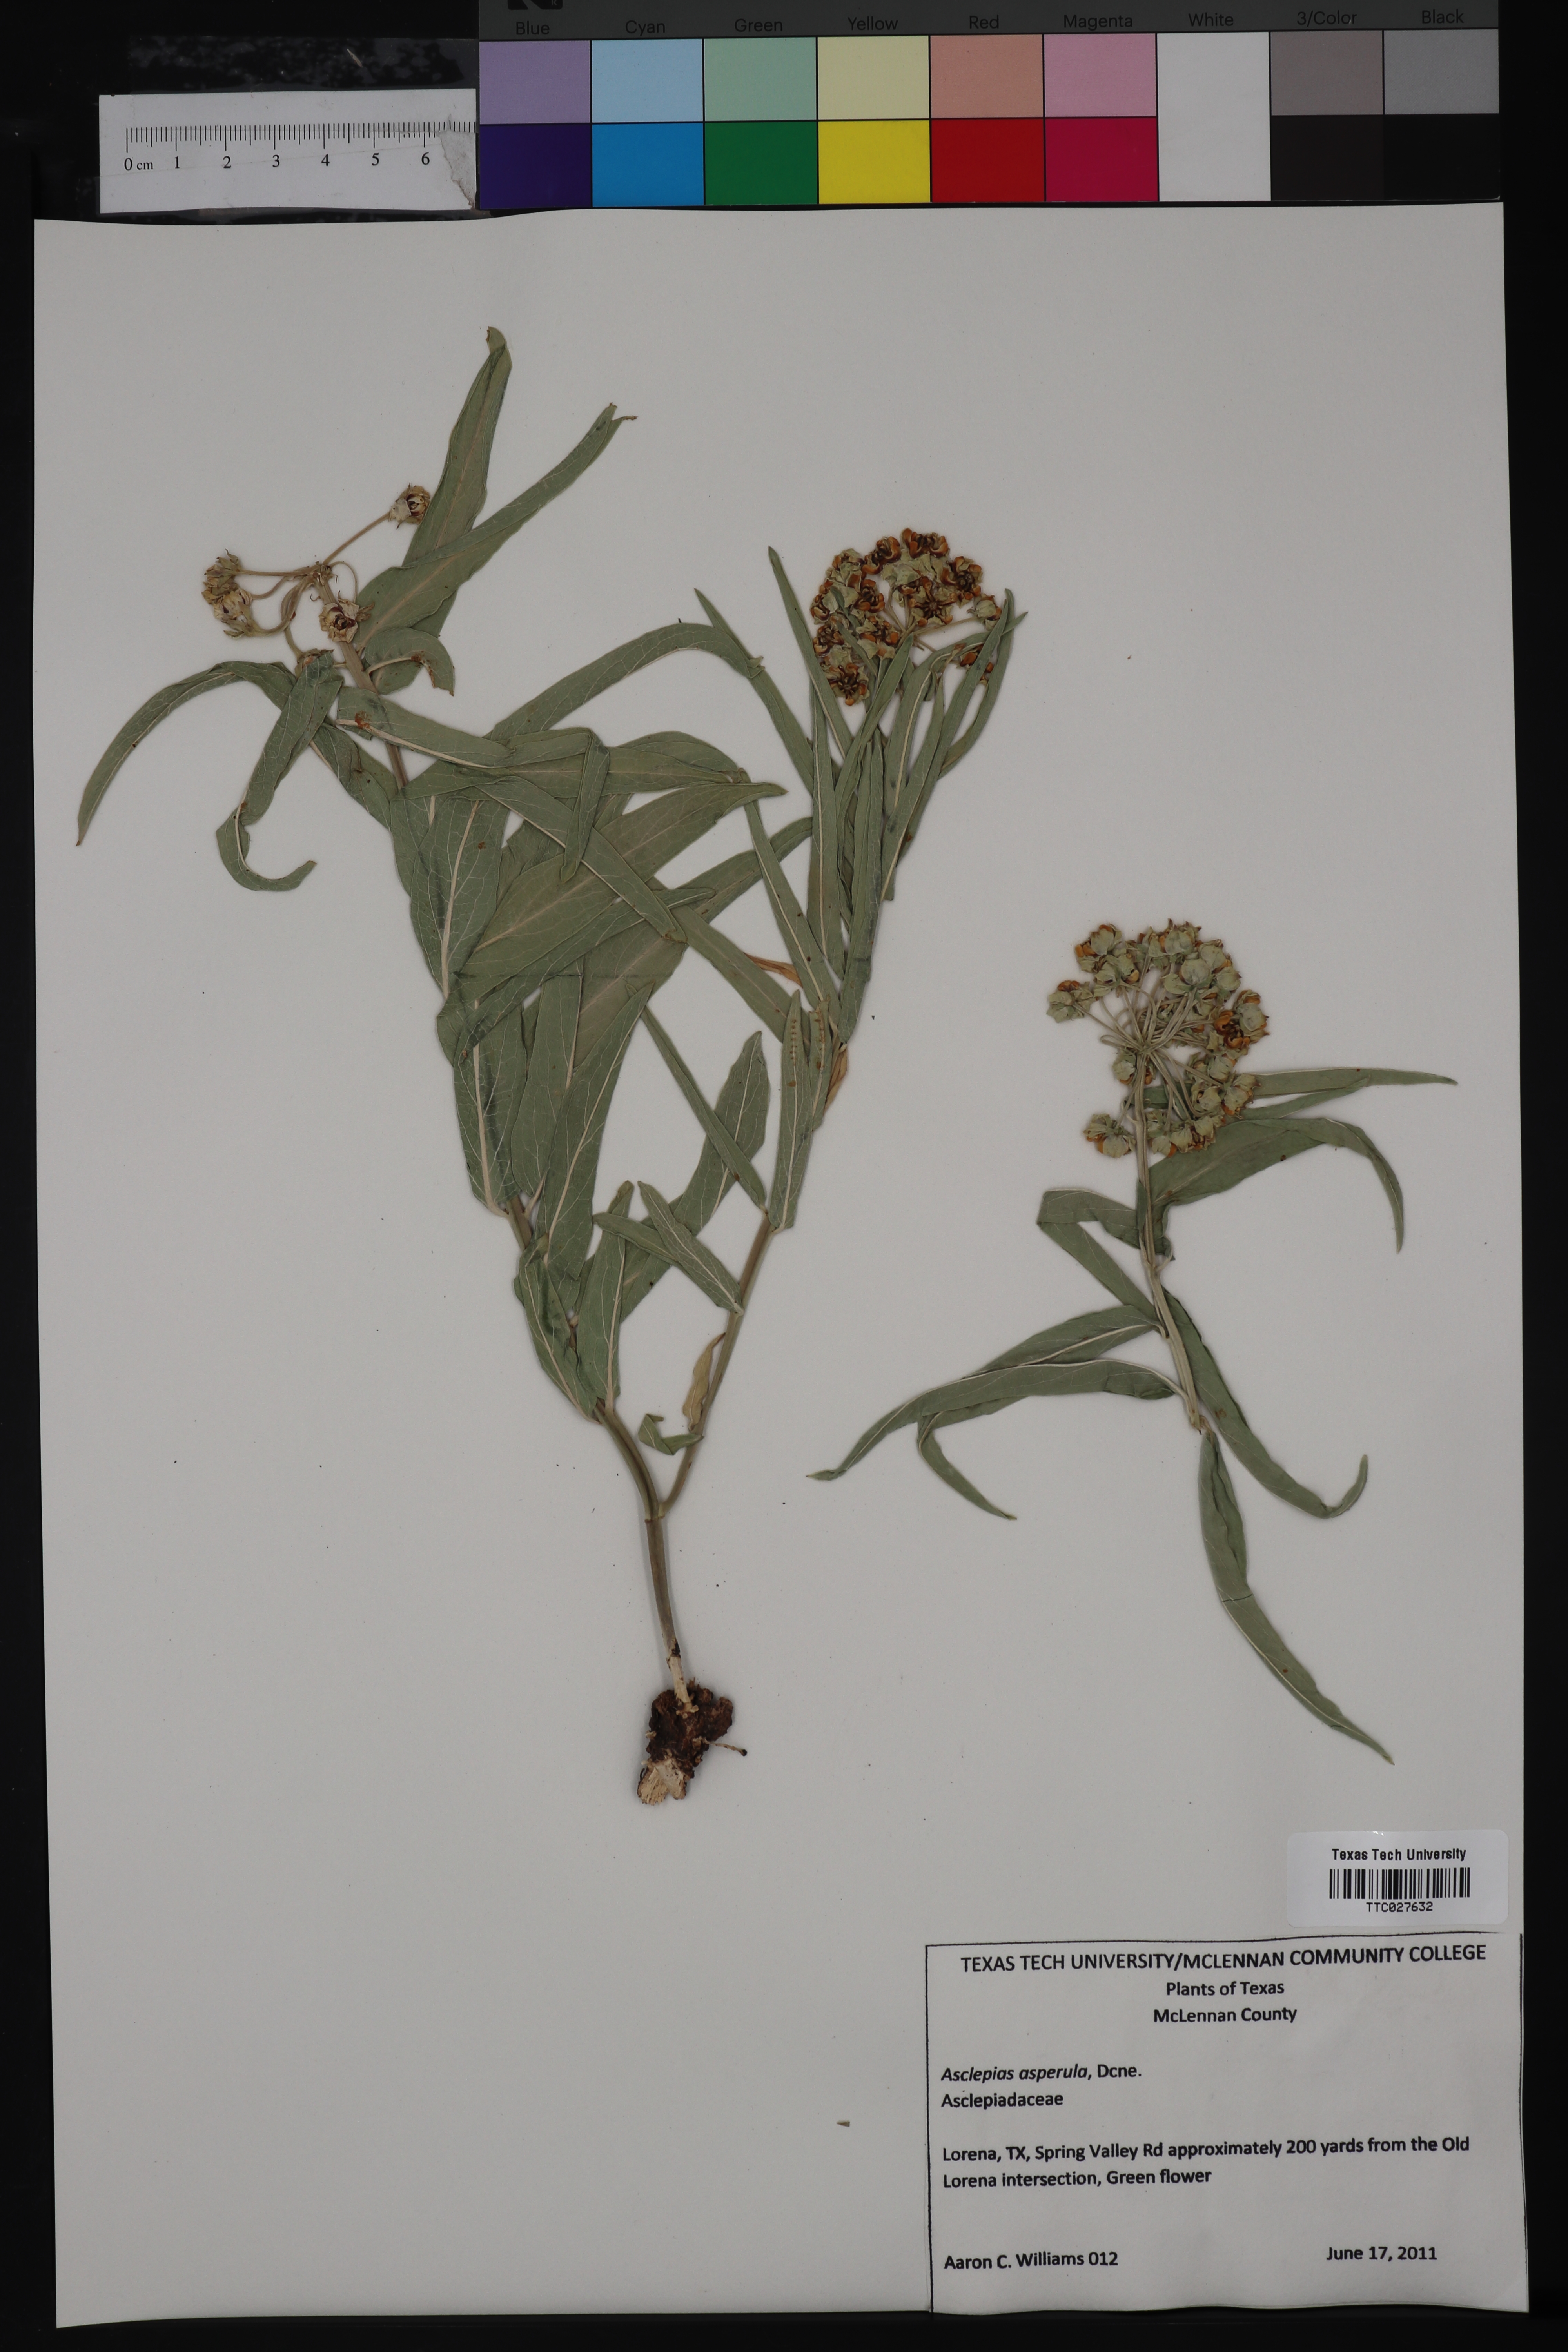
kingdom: Plantae
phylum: Tracheophyta
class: Magnoliopsida
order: Gentianales
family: Apocynaceae
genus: Asclepias
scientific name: Asclepias asperula
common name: Antelope horns
